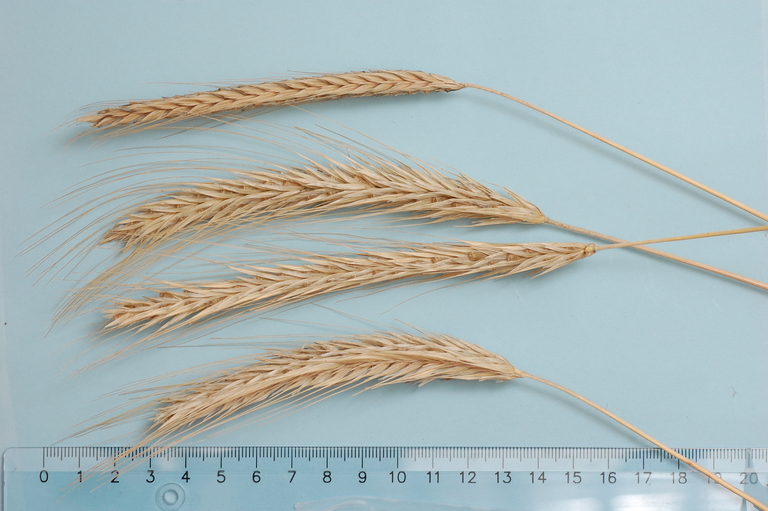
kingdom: Plantae
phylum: Tracheophyta
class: Liliopsida
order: Poales
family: Poaceae
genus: Secale
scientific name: Secale cereale
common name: Rye
